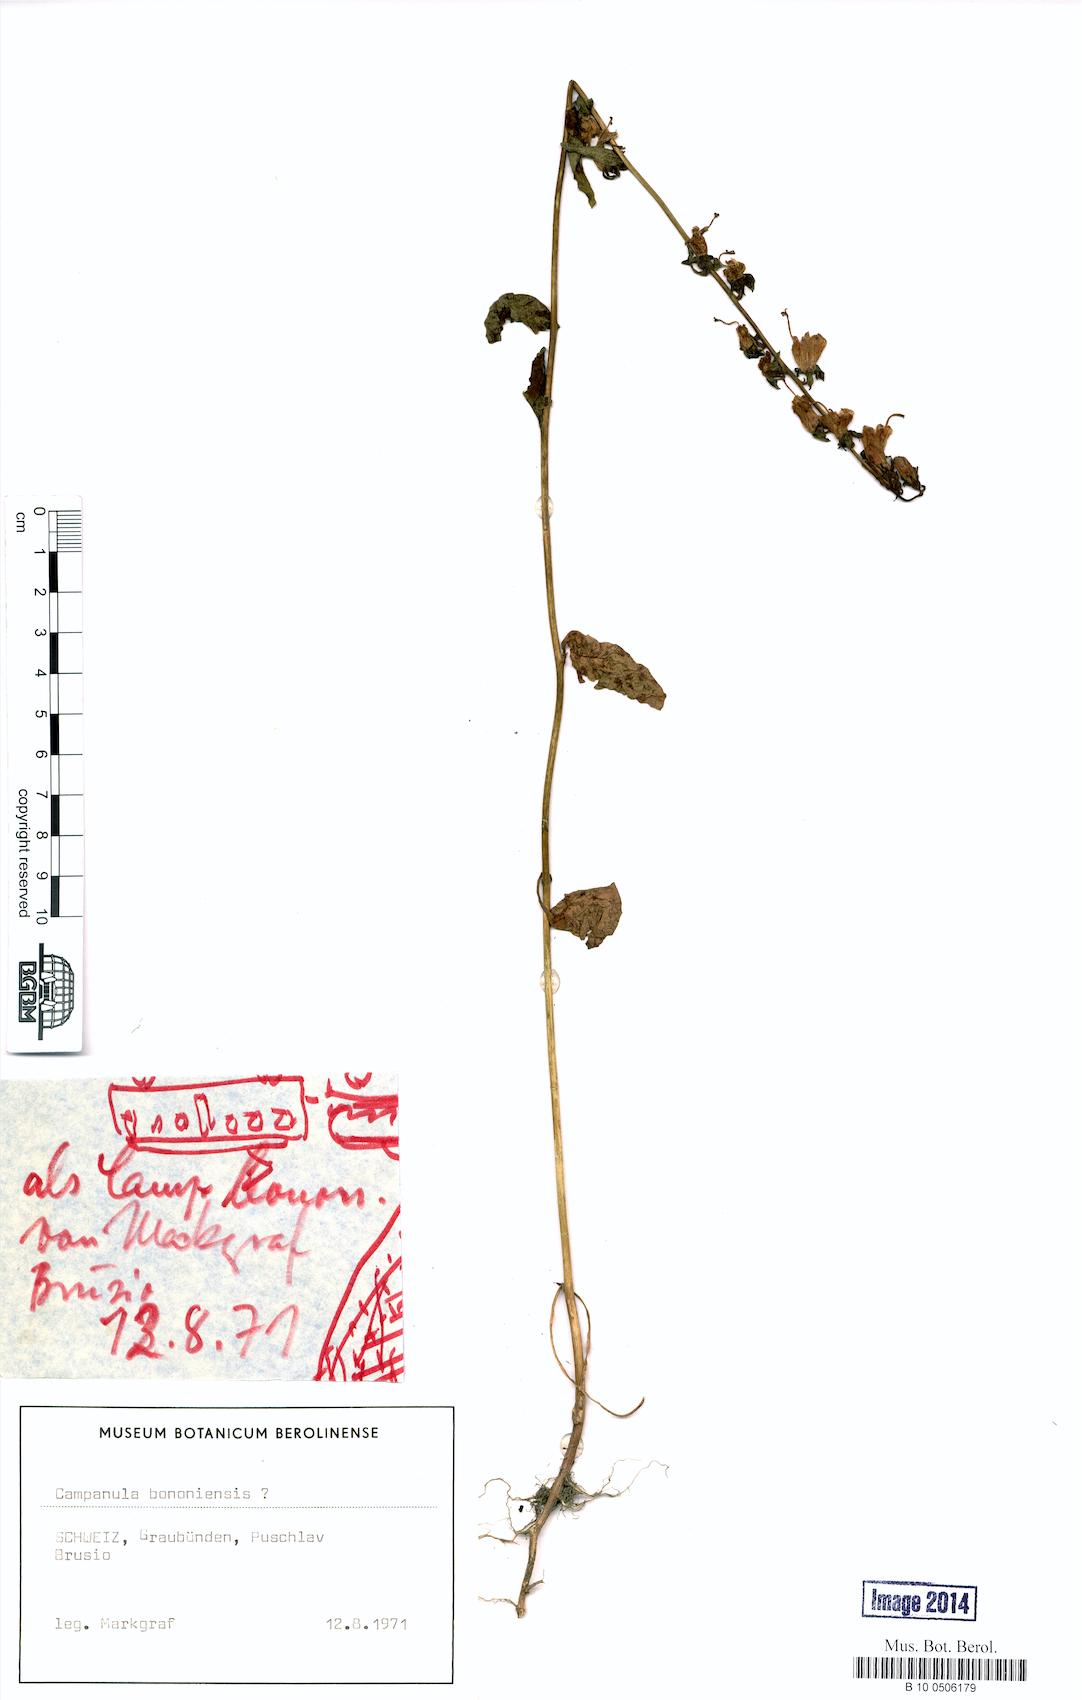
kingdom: Plantae
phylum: Tracheophyta
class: Magnoliopsida
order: Asterales
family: Campanulaceae
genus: Campanula
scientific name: Campanula bononiensis
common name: Pale bellflower
